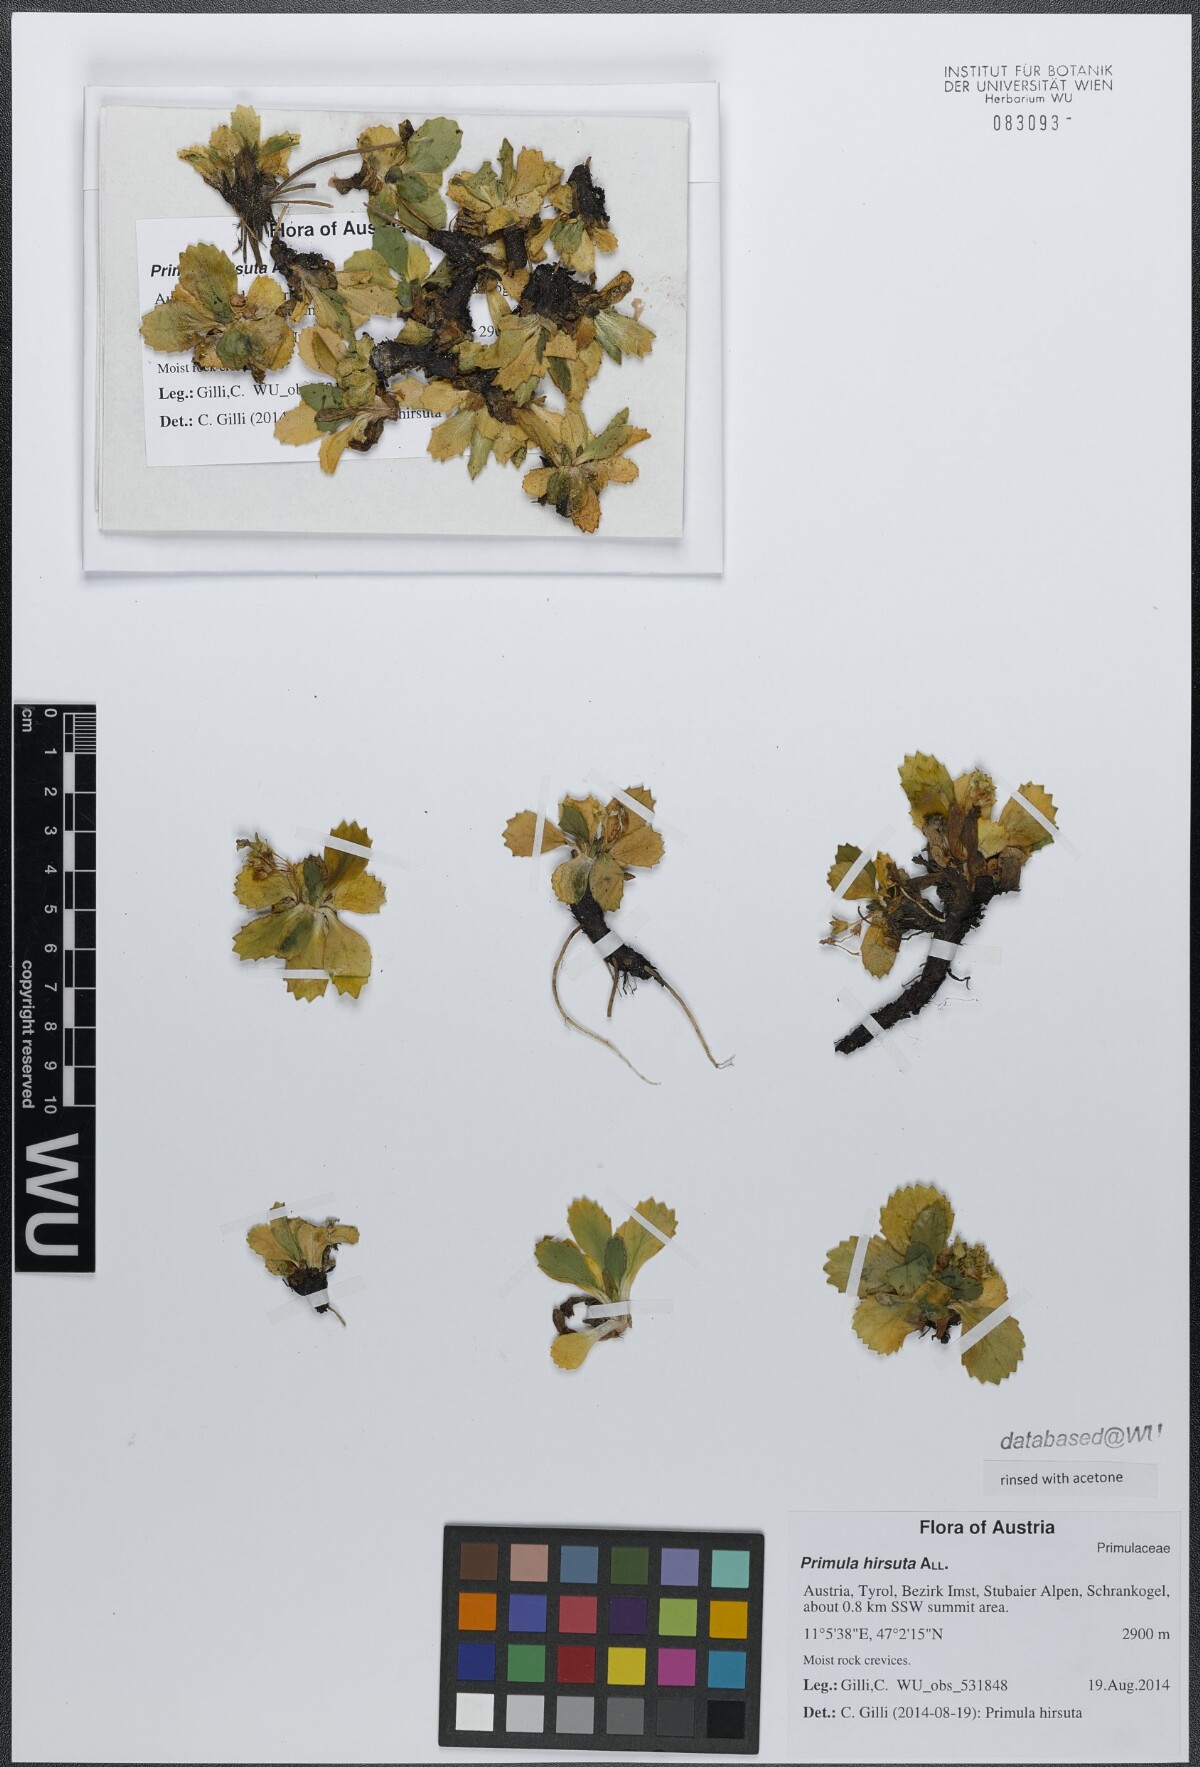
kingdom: Plantae
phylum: Tracheophyta
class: Magnoliopsida
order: Ericales
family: Primulaceae
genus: Primula
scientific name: Primula hirsuta
